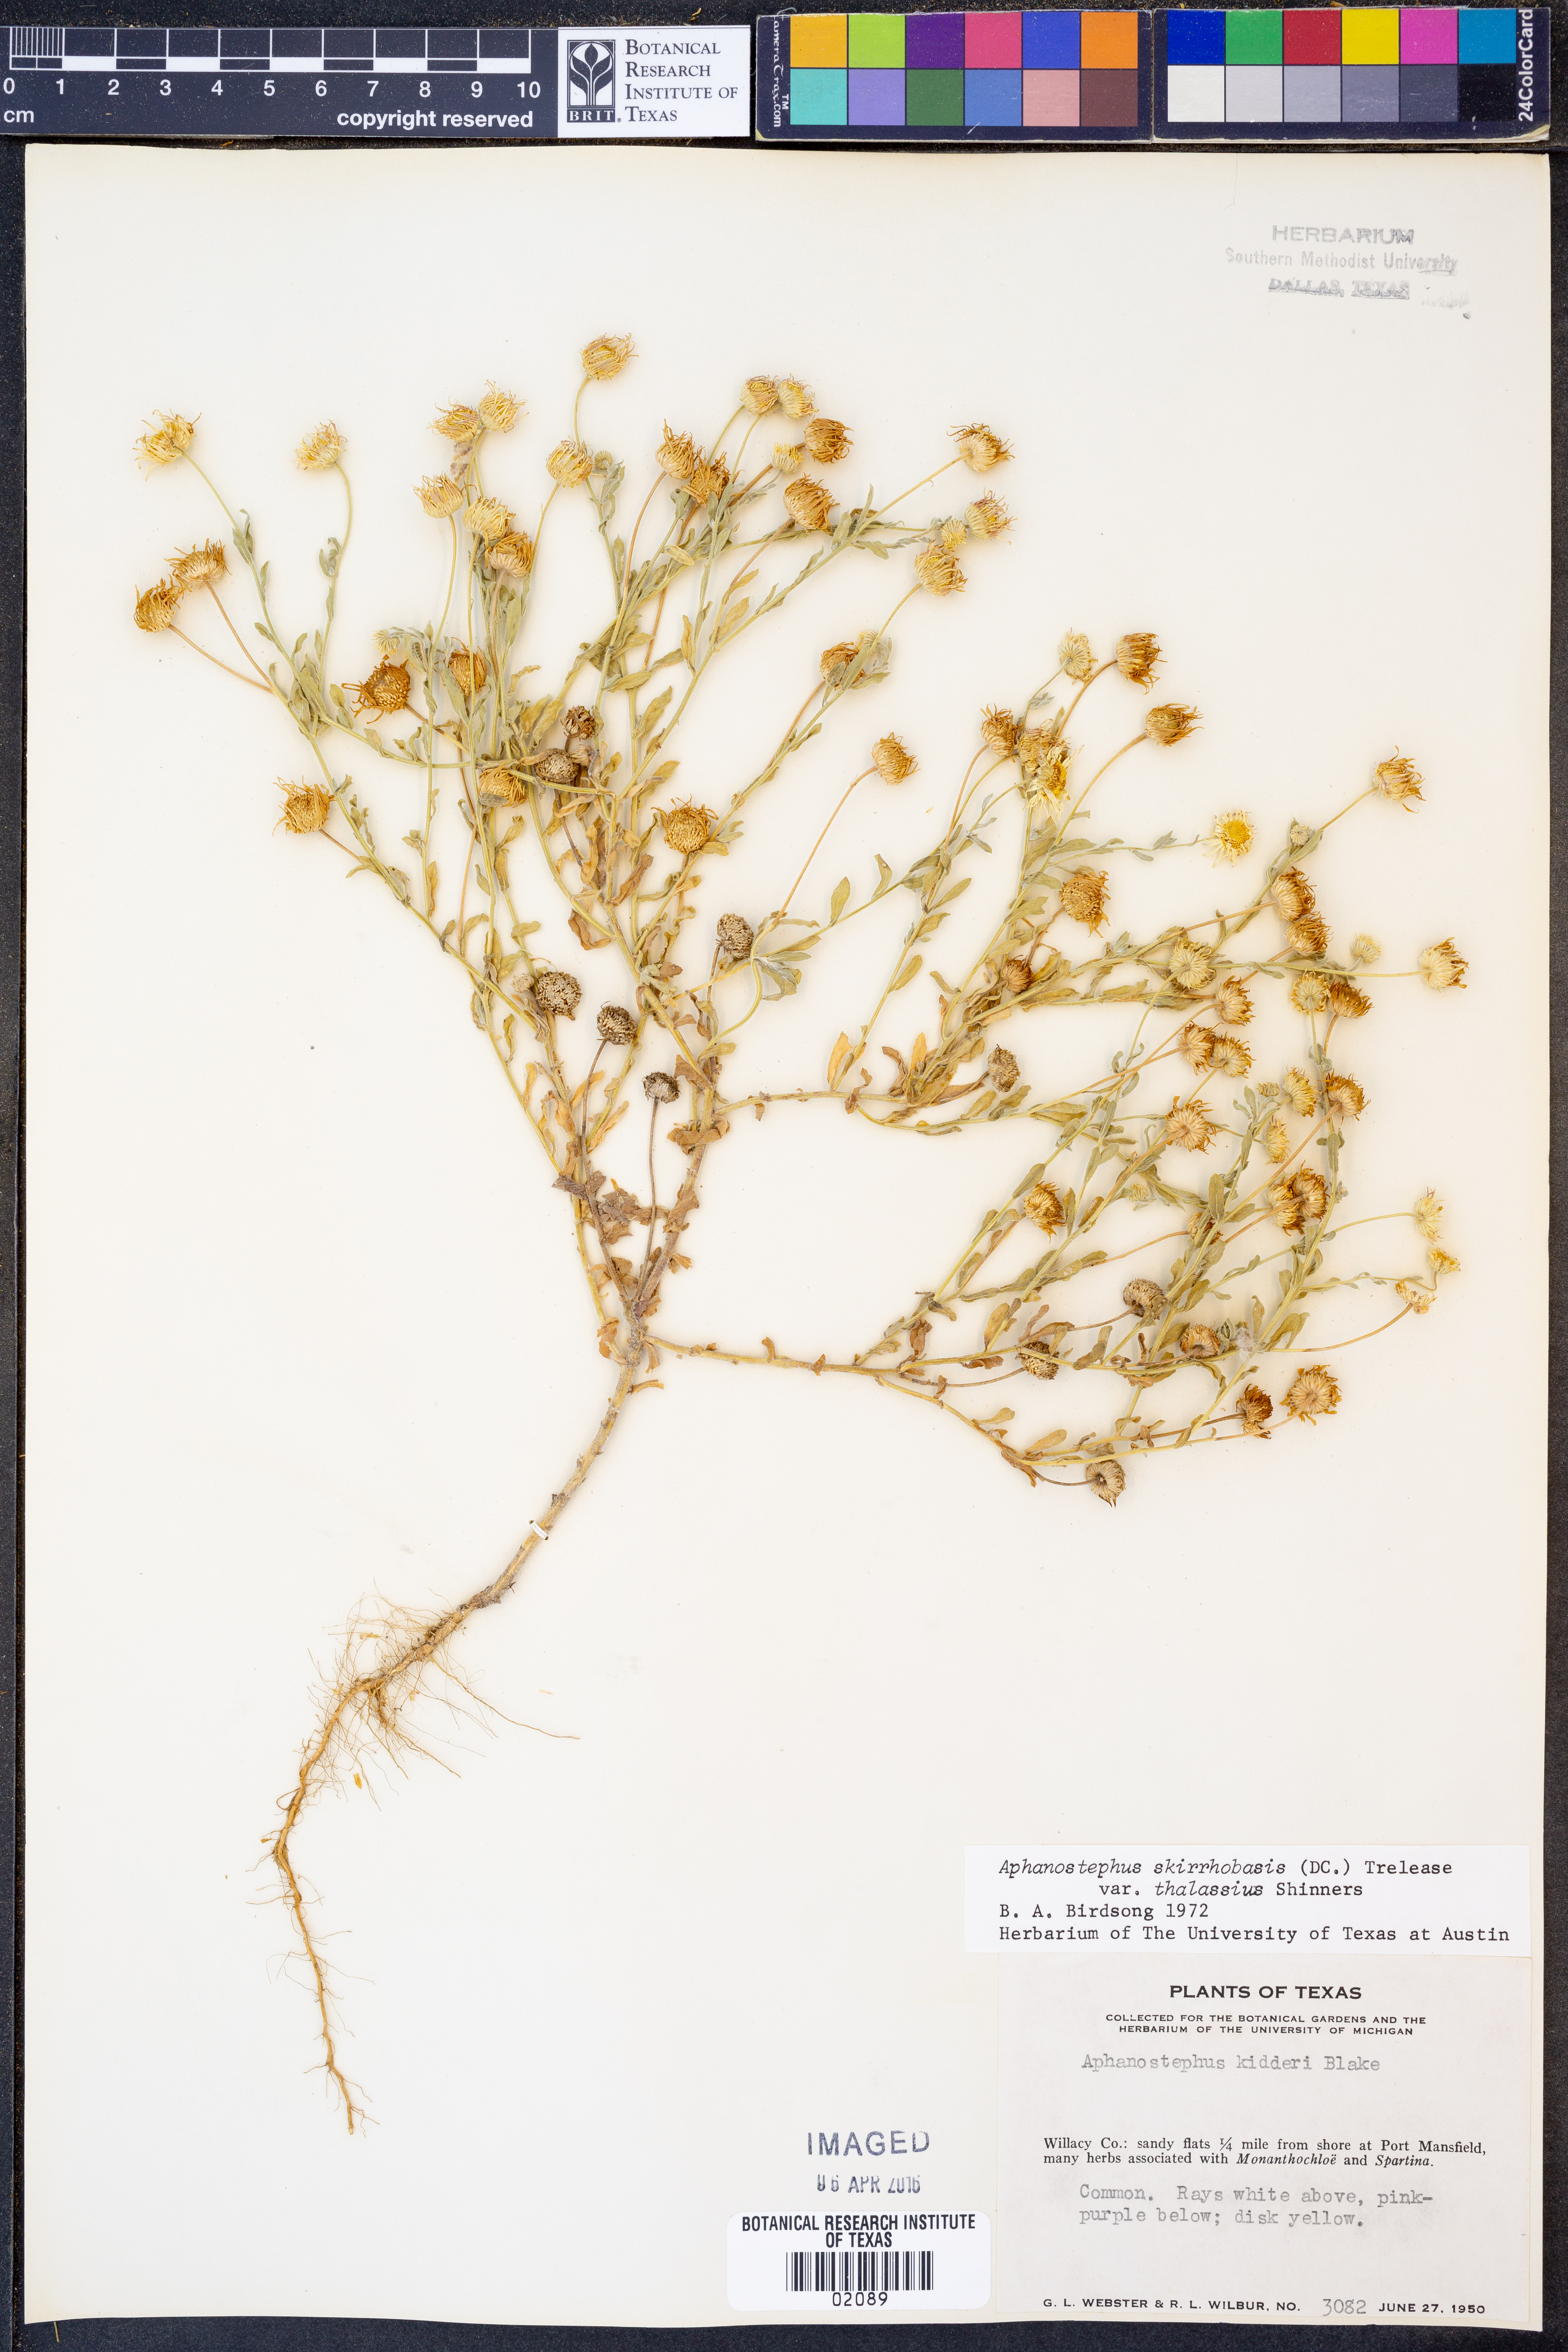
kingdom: Plantae
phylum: Tracheophyta
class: Magnoliopsida
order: Asterales
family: Asteraceae
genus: Aphanostephus
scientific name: Aphanostephus skirrhobasis
